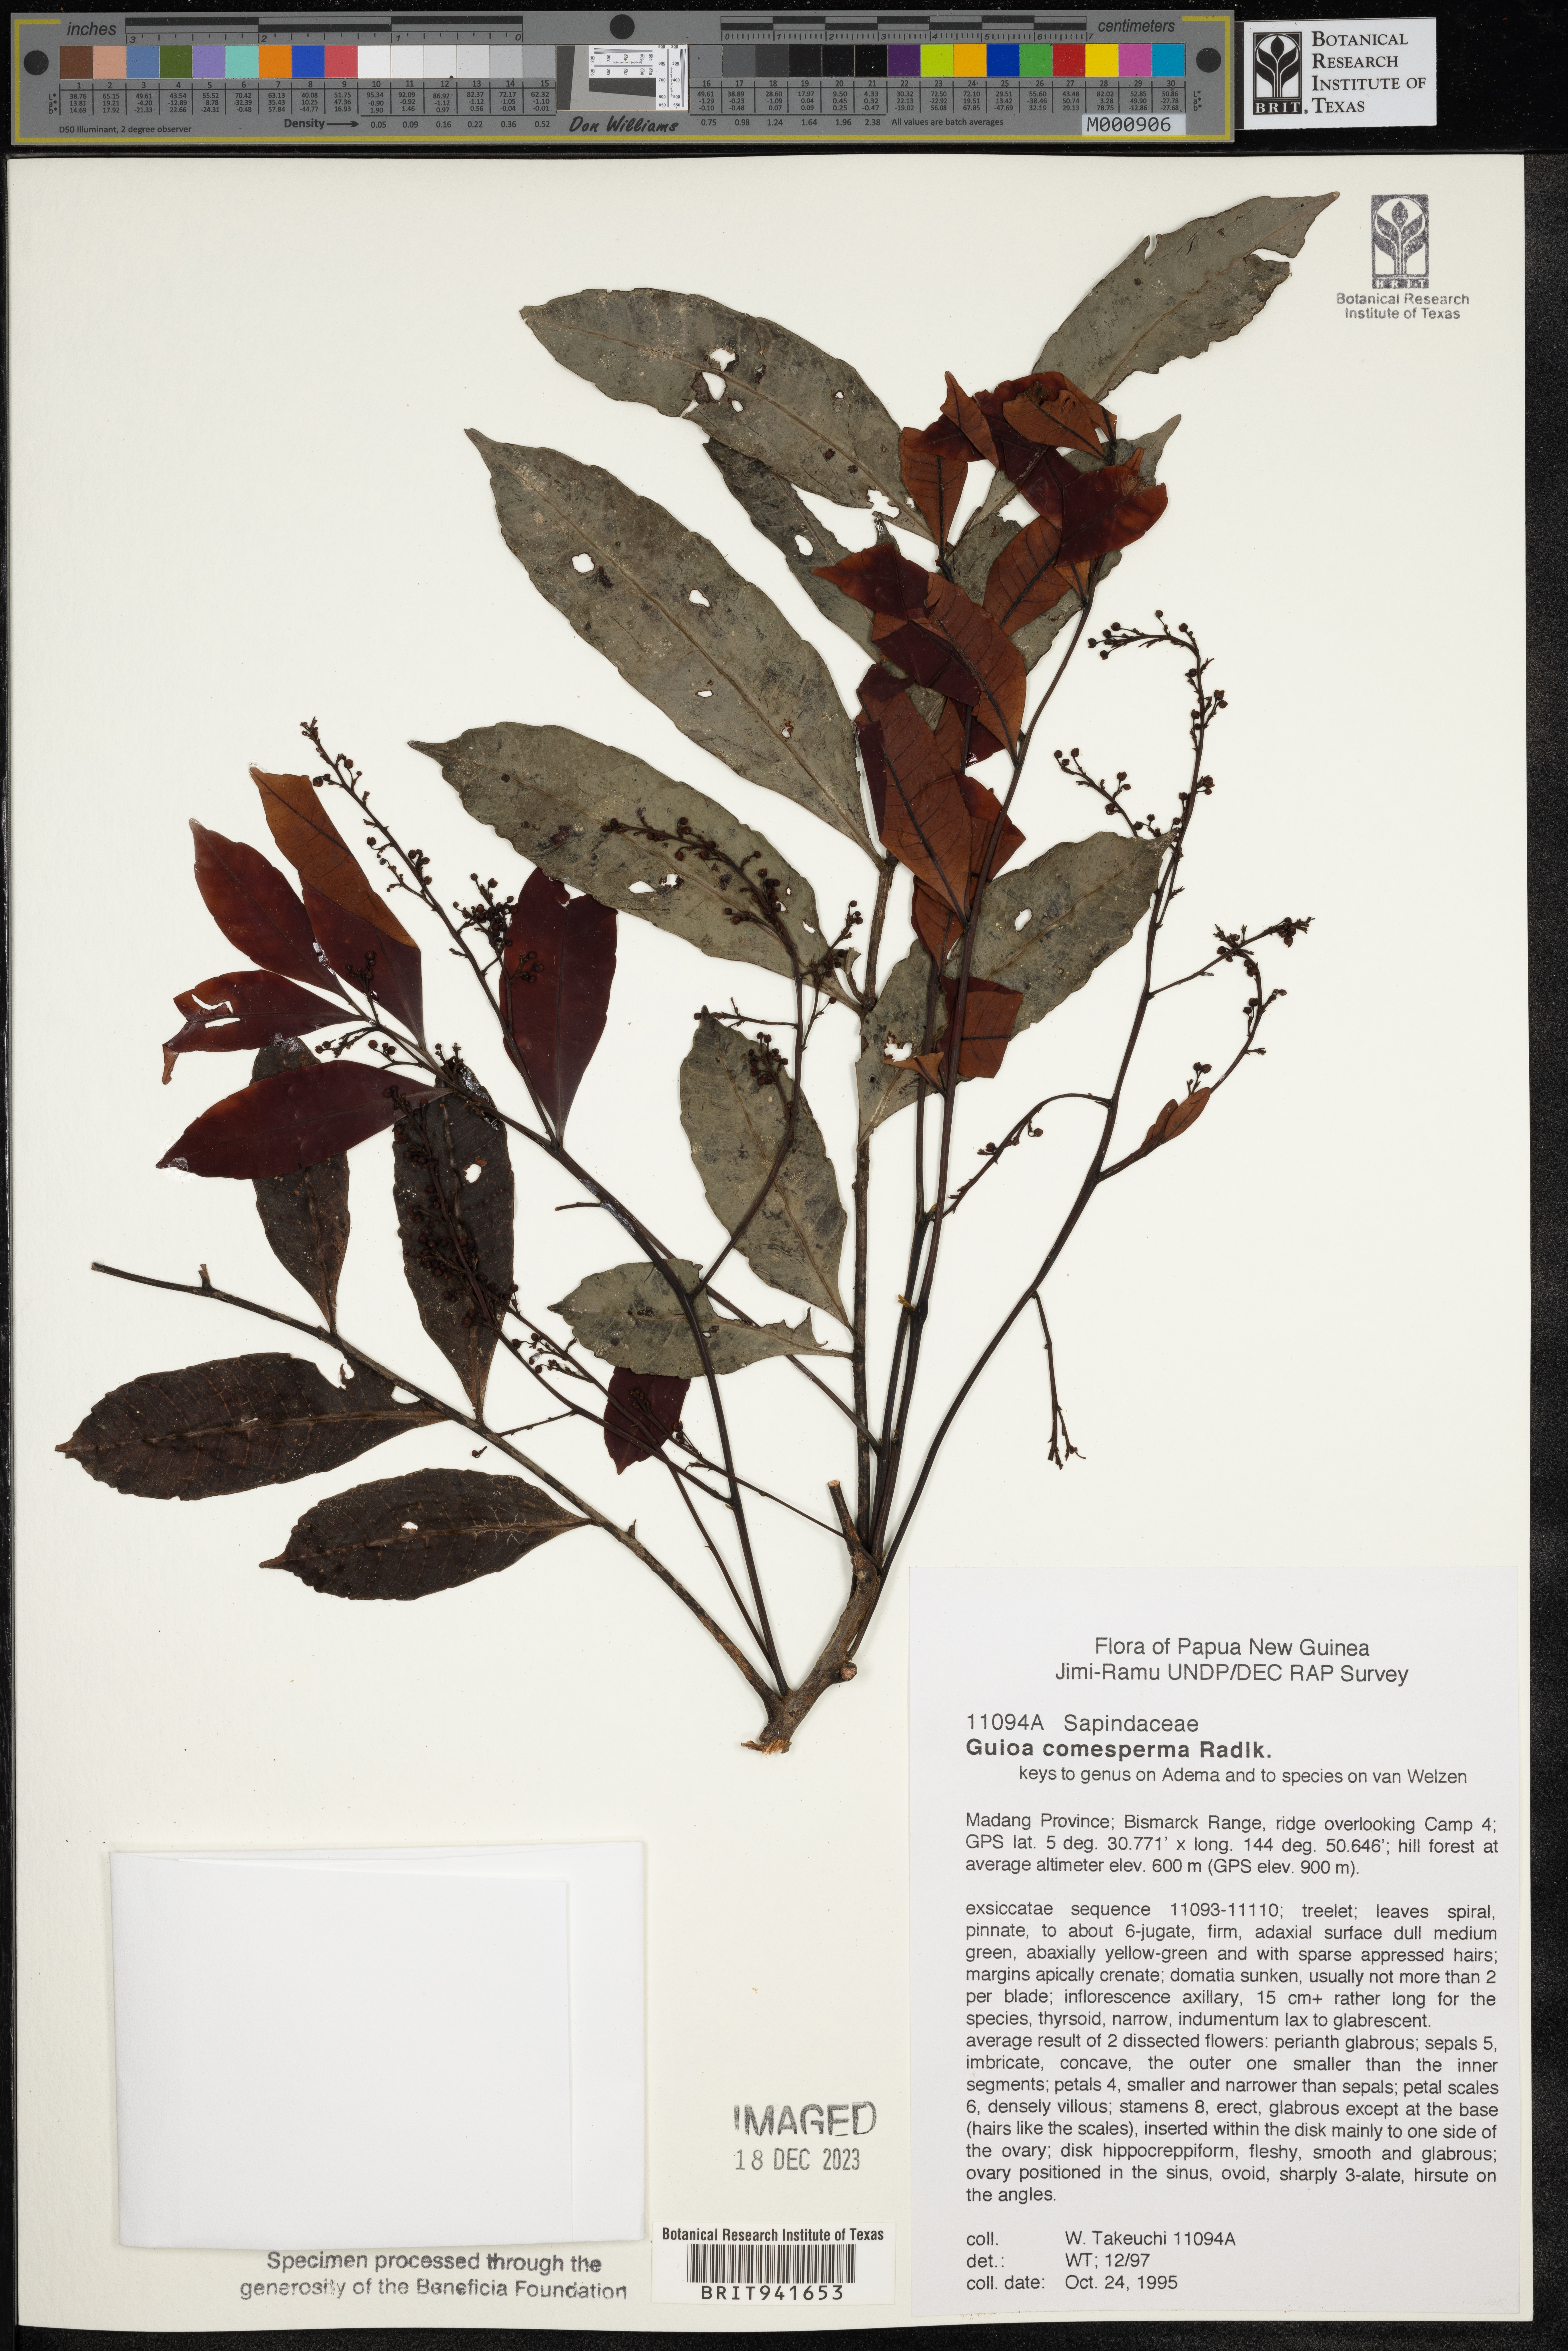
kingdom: Plantae
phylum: Tracheophyta
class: Magnoliopsida
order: Sapindales
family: Sapindaceae
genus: Guioa
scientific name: Guioa
